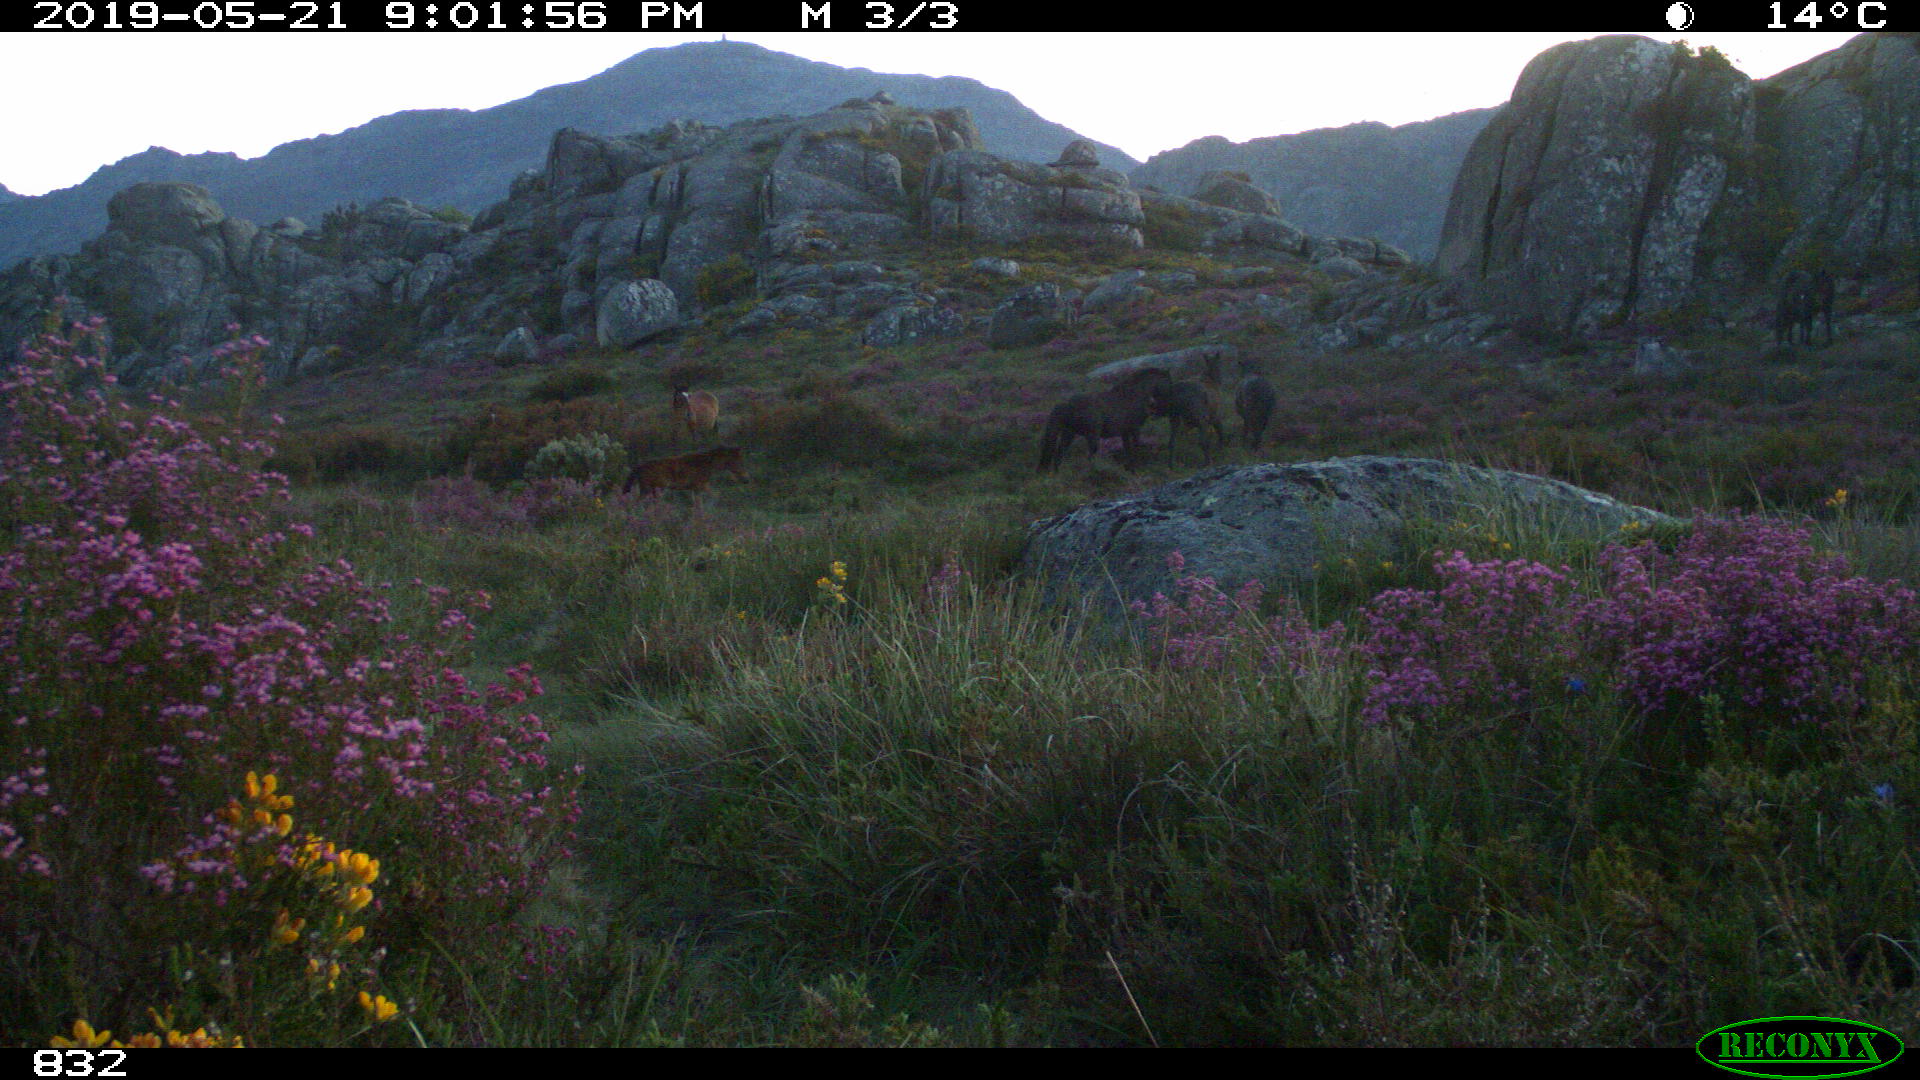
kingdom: Animalia
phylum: Chordata
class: Mammalia
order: Perissodactyla
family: Equidae
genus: Equus
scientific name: Equus caballus
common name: Horse
